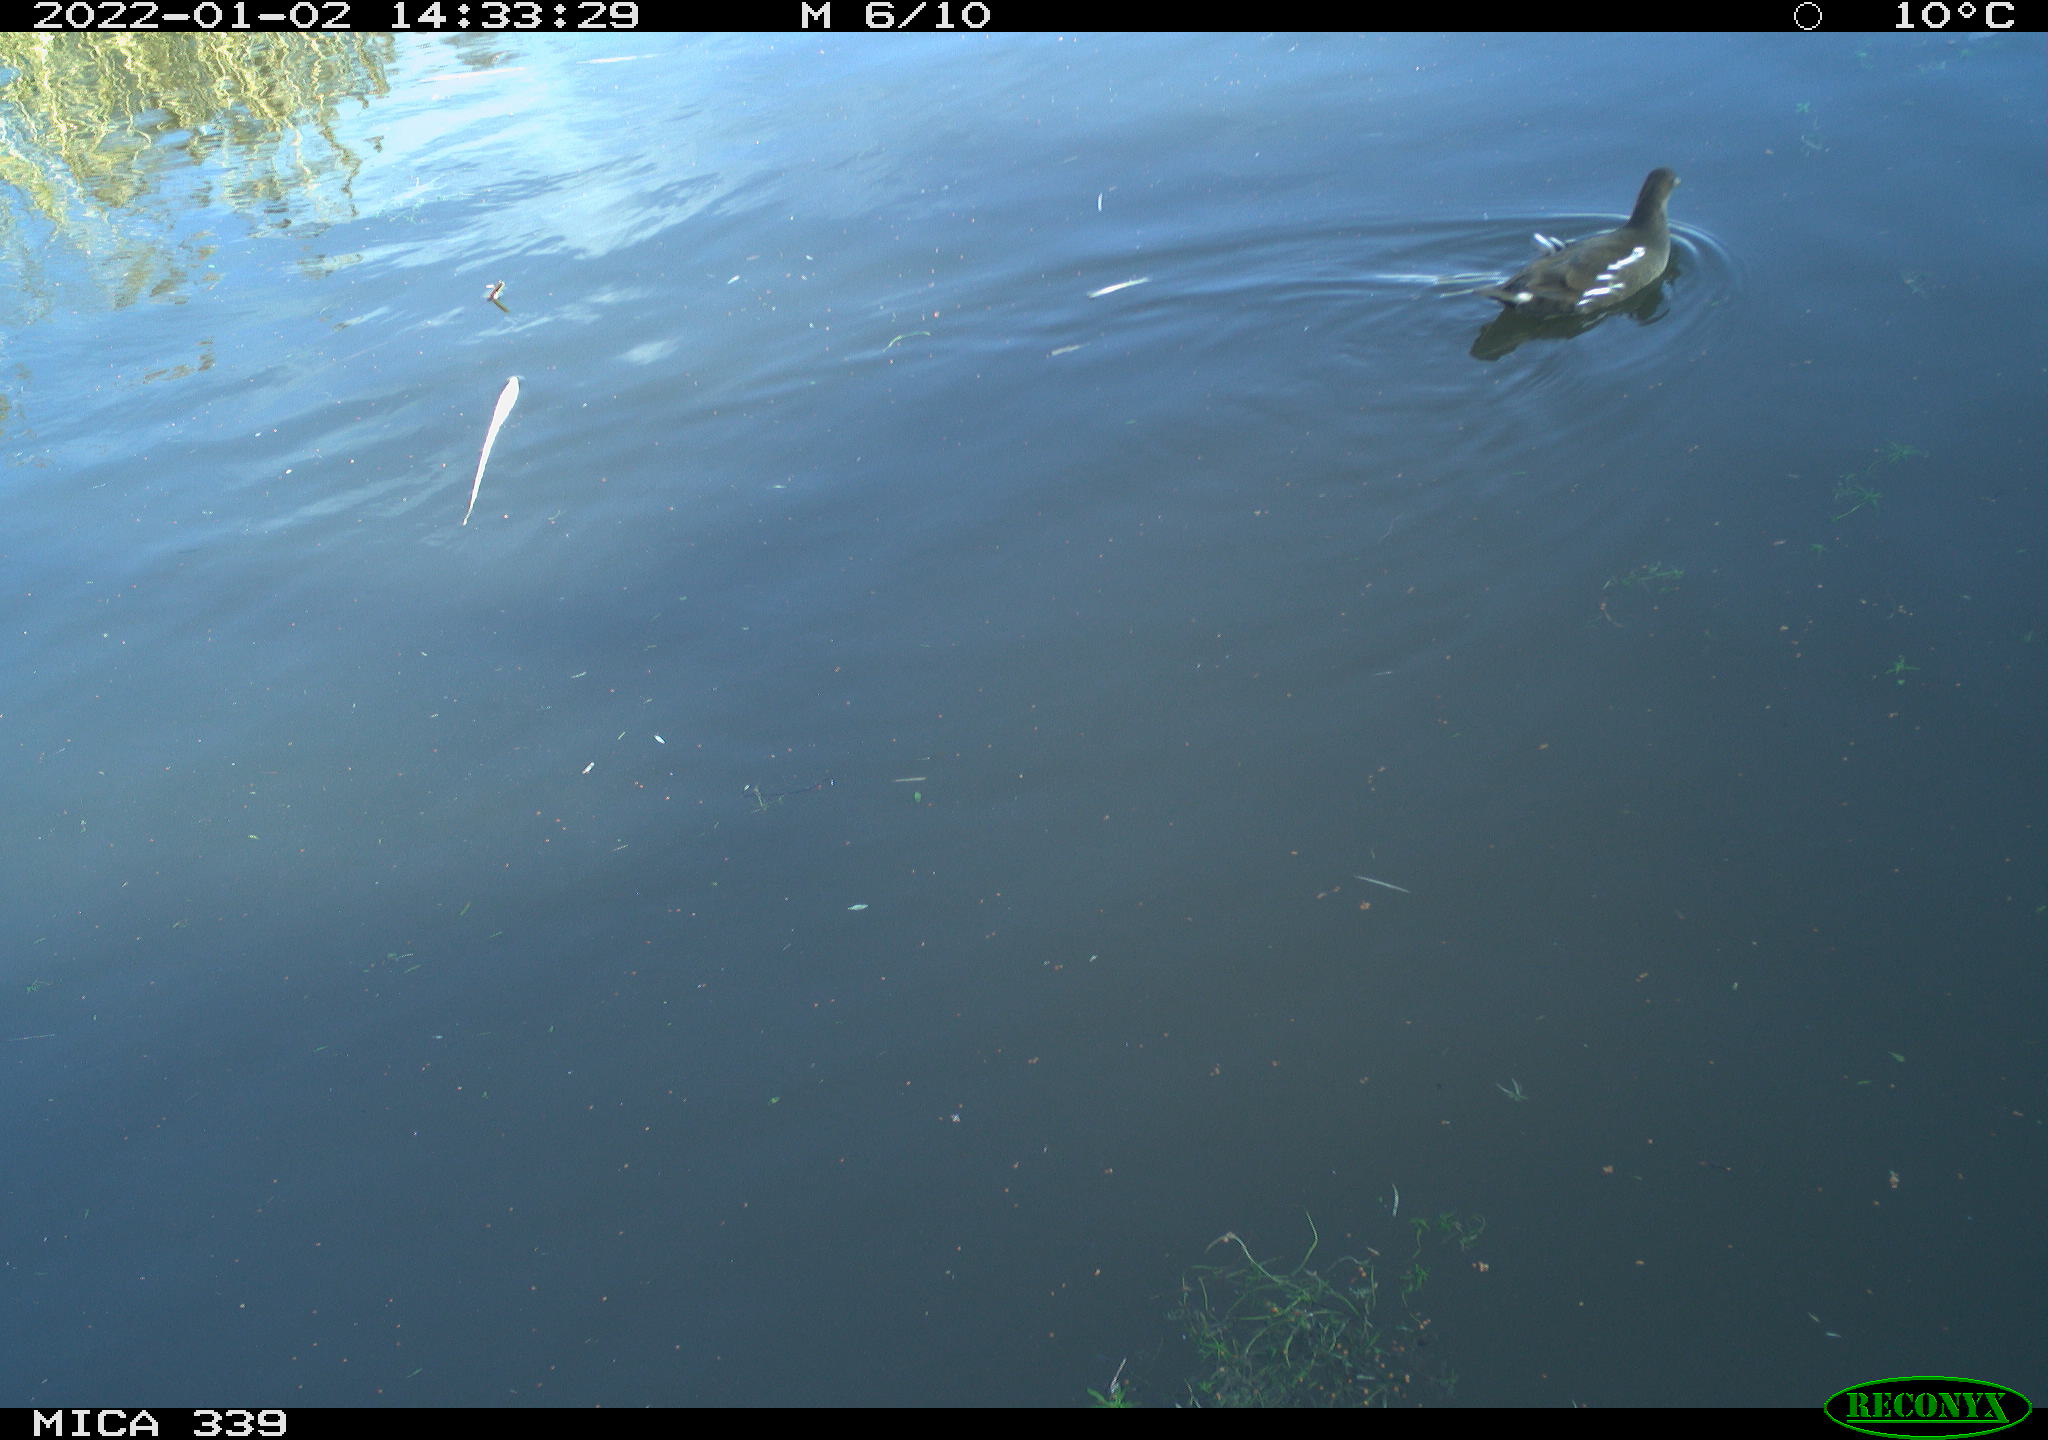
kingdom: Animalia
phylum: Chordata
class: Aves
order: Gruiformes
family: Rallidae
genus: Gallinula
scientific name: Gallinula chloropus
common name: Common moorhen
